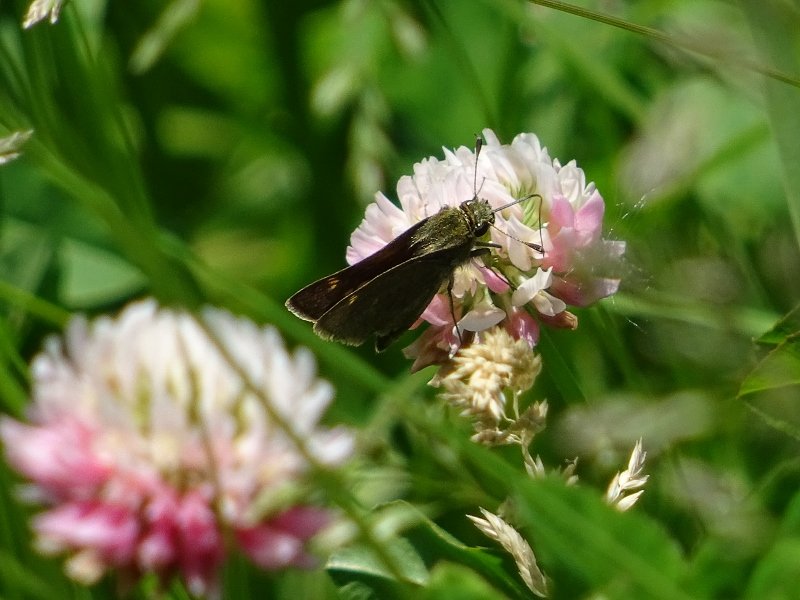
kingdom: Animalia
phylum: Arthropoda
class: Insecta
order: Lepidoptera
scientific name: Lepidoptera
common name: Butterflies
